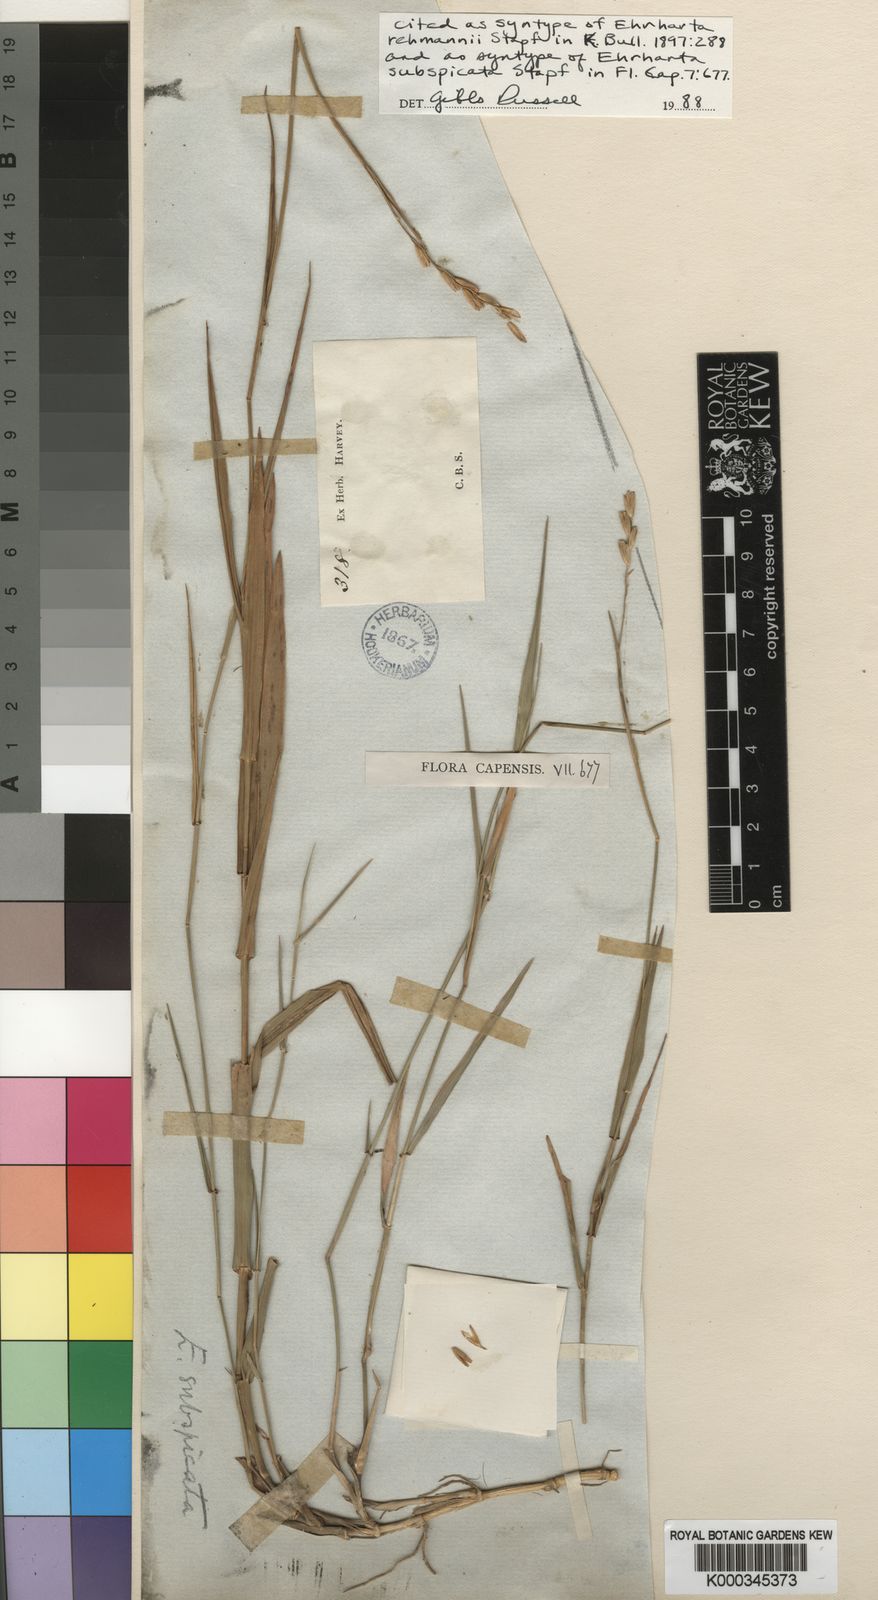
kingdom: Plantae
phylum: Tracheophyta
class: Liliopsida
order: Poales
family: Poaceae
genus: Ehrharta
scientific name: Ehrharta rehmannii
